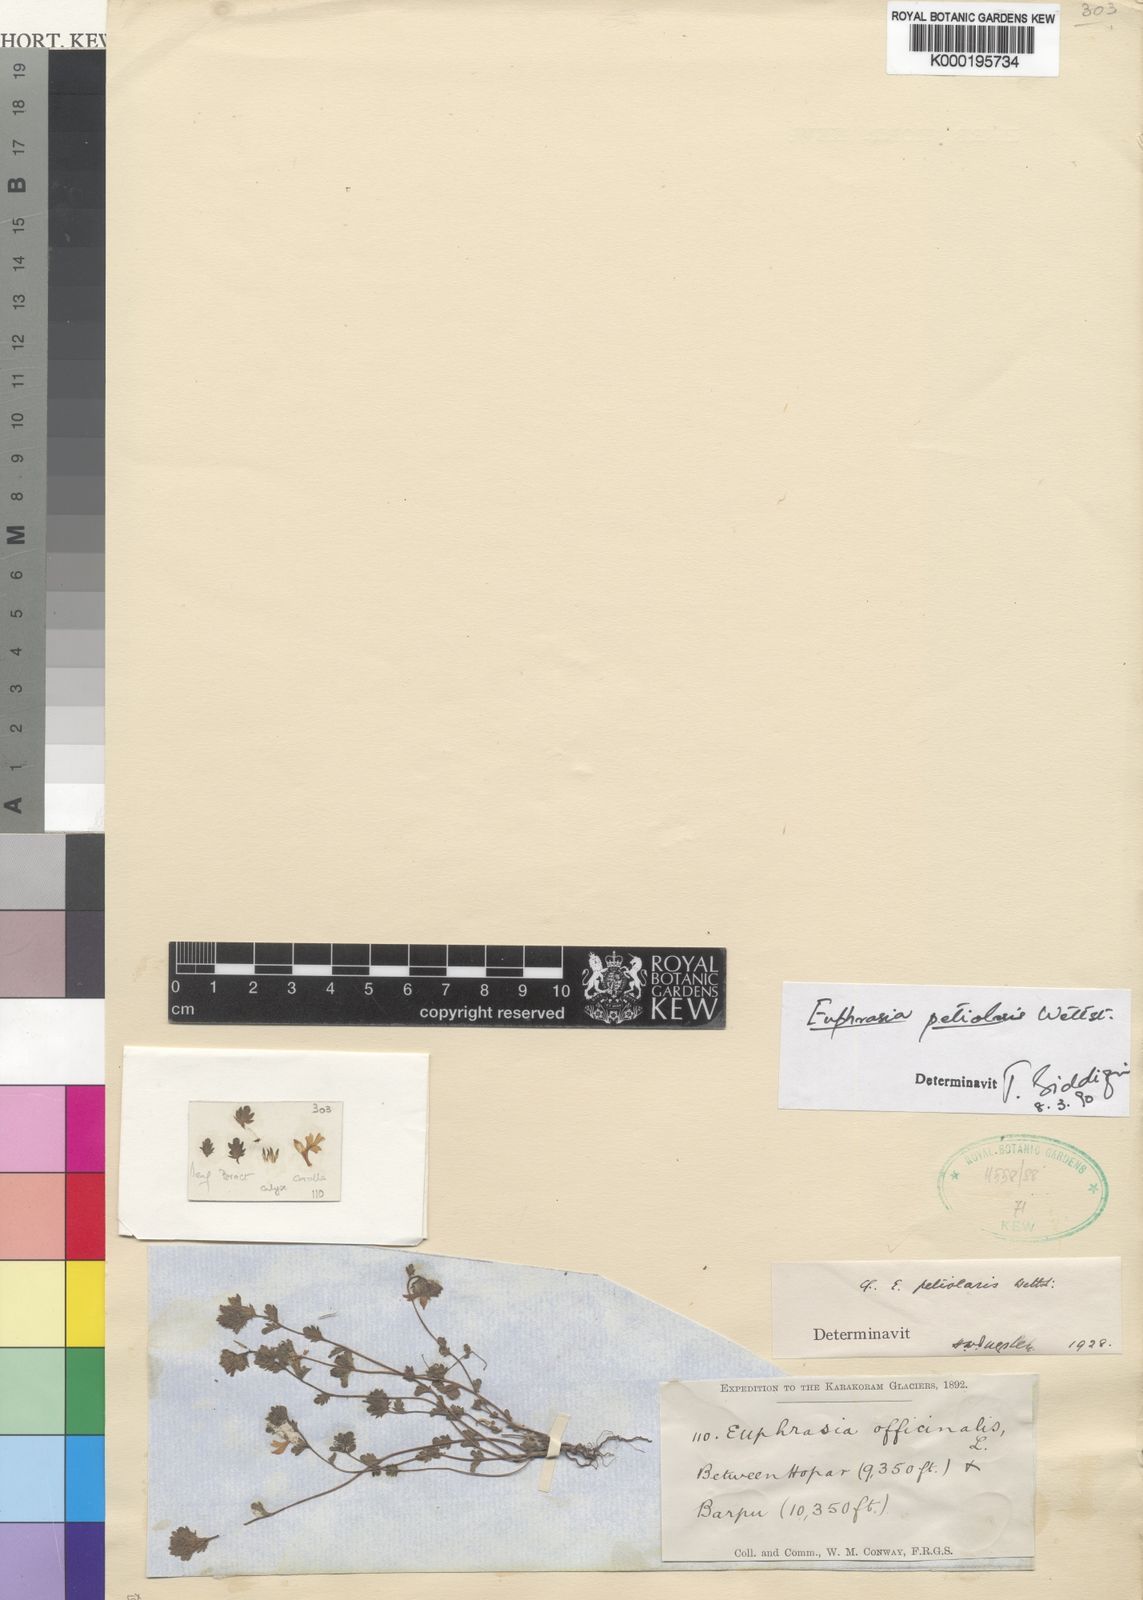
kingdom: Plantae
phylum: Tracheophyta
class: Magnoliopsida
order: Lamiales
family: Orobanchaceae
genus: Euphrasia
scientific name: Euphrasia petiolaris
